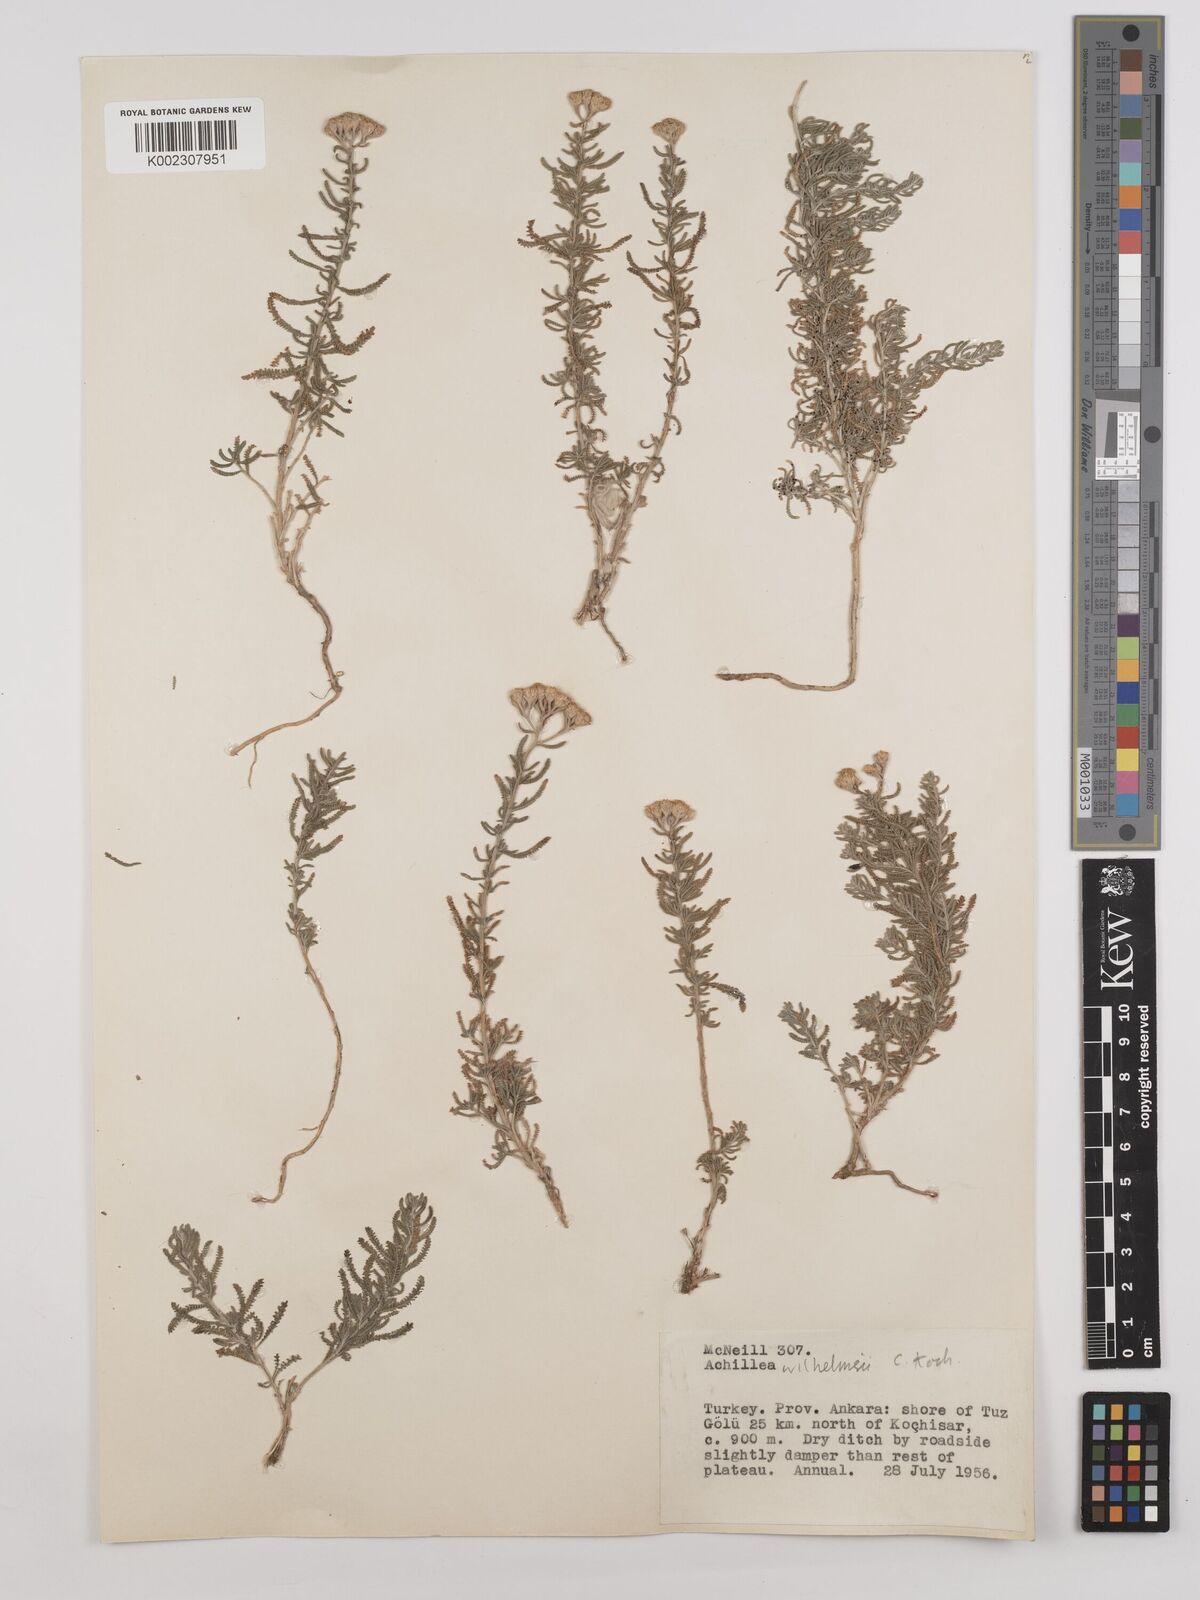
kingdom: Plantae
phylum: Tracheophyta
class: Magnoliopsida
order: Asterales
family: Asteraceae
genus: Achillea
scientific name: Achillea tenuifolia
